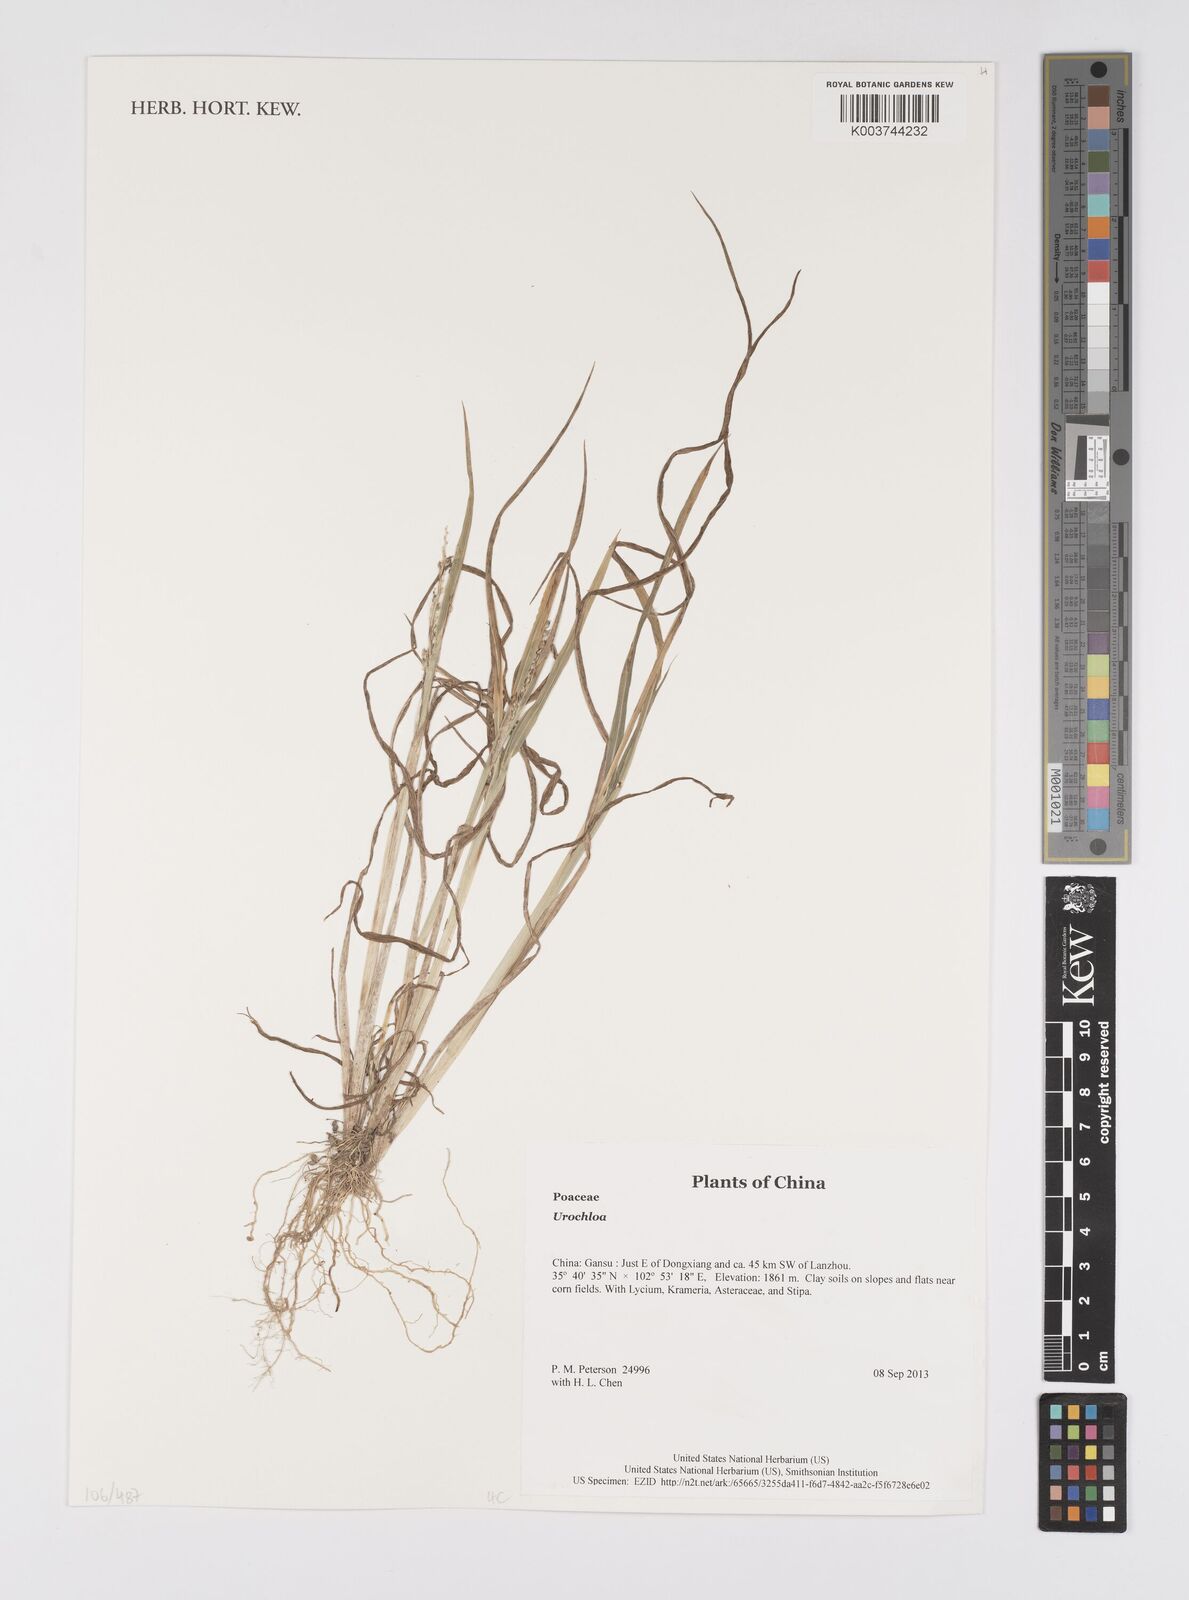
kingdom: Plantae
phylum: Tracheophyta
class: Liliopsida
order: Poales
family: Poaceae
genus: Urochloa
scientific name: Urochloa
